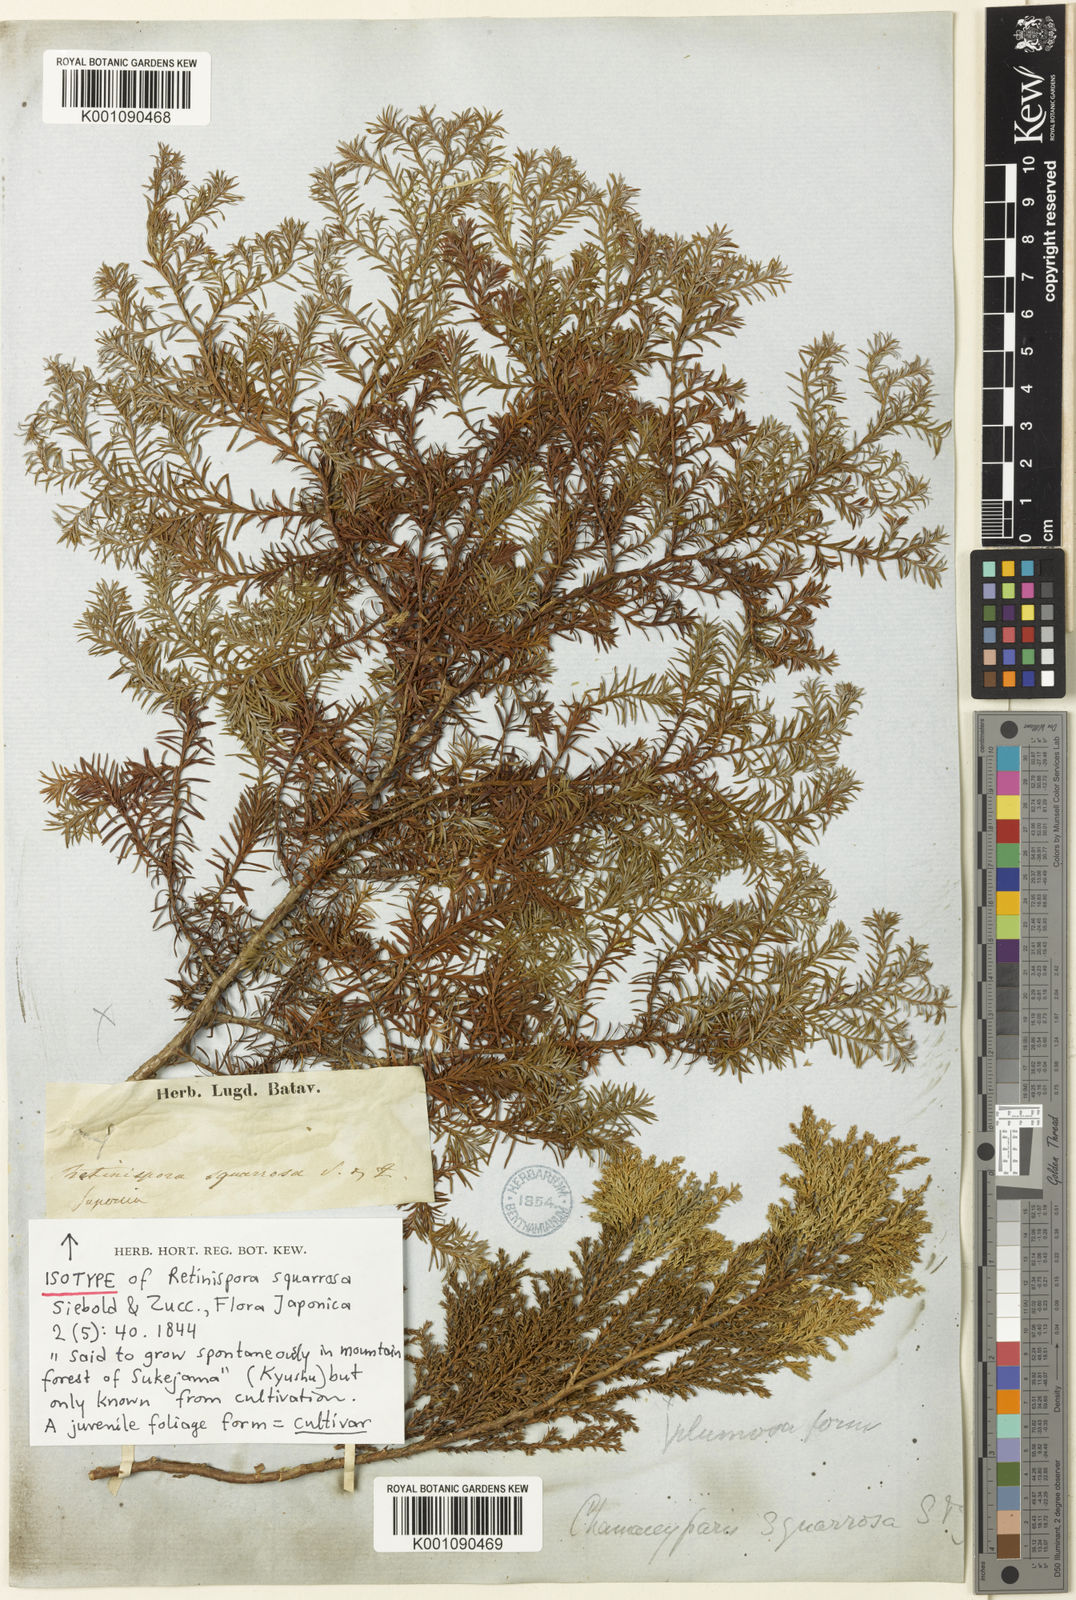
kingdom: Plantae
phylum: Tracheophyta
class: Pinopsida
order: Pinales
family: Cupressaceae
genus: Chamaecyparis
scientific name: Chamaecyparis pisifera
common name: Sawara cypress
